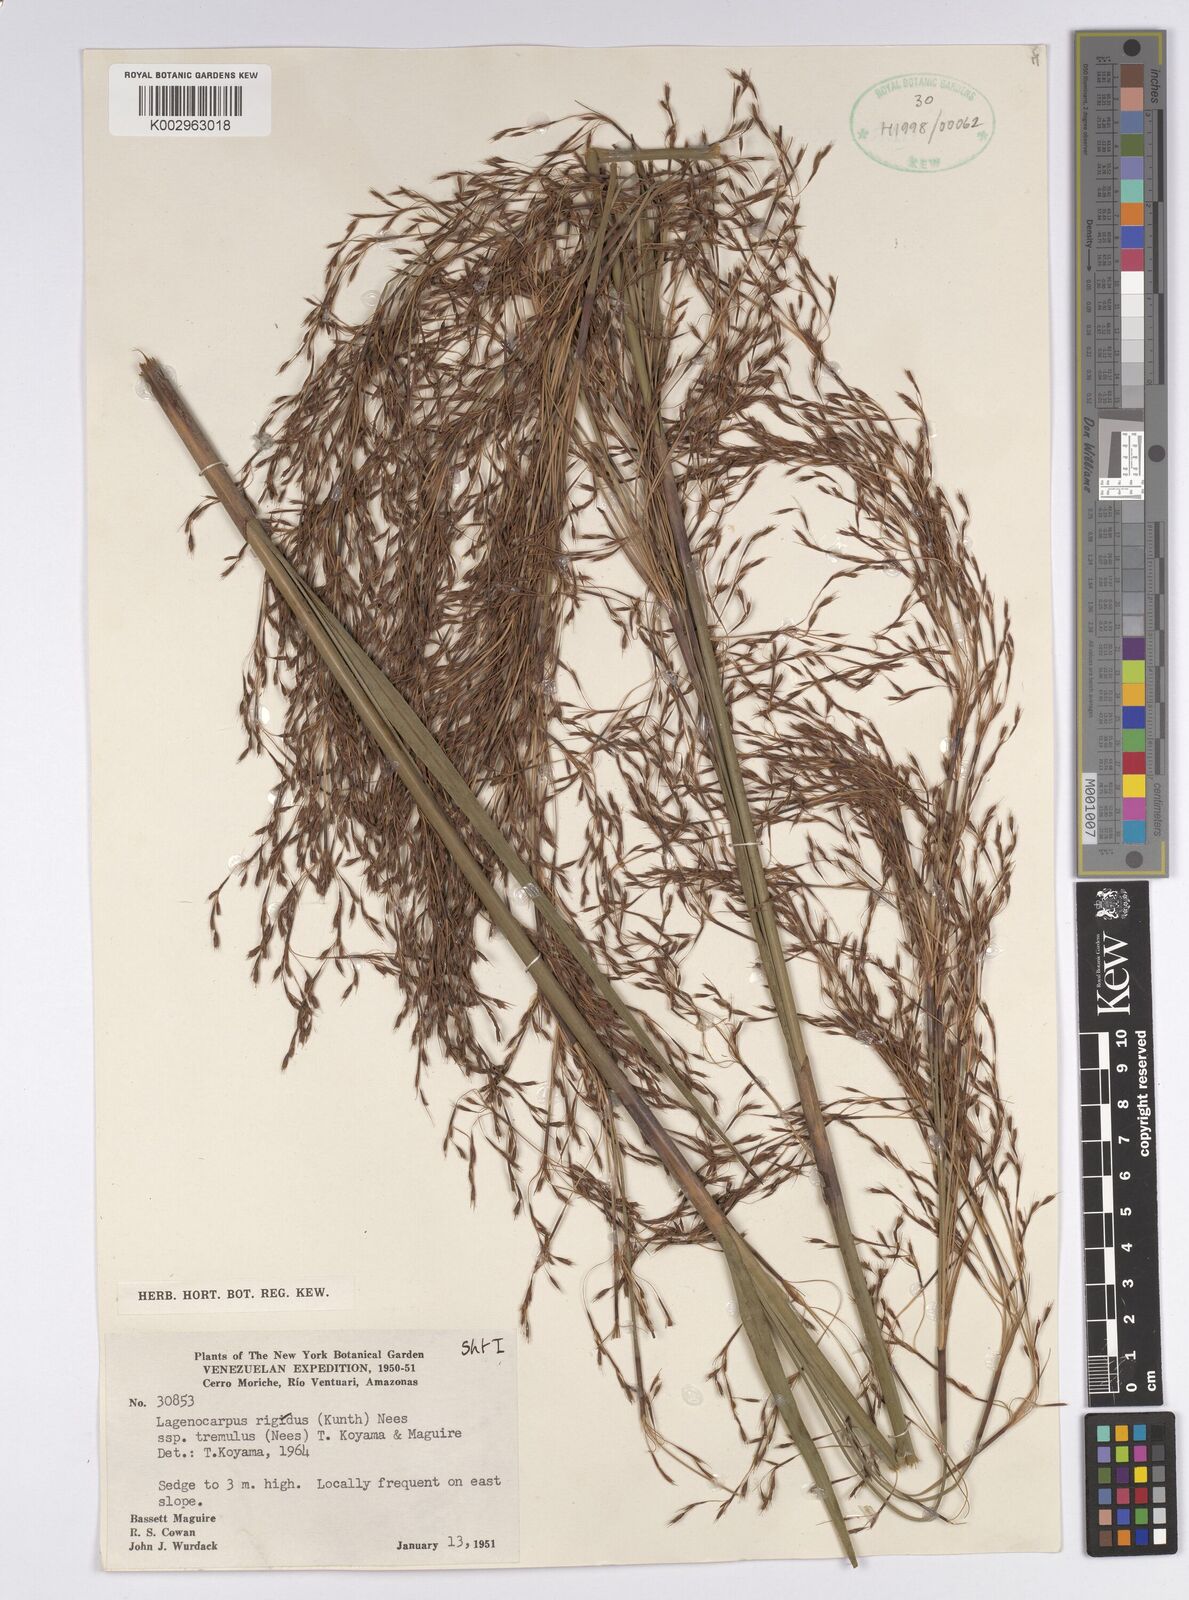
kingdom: Plantae
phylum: Tracheophyta
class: Liliopsida
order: Poales
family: Cyperaceae
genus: Lagenocarpus
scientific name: Lagenocarpus rigidus
